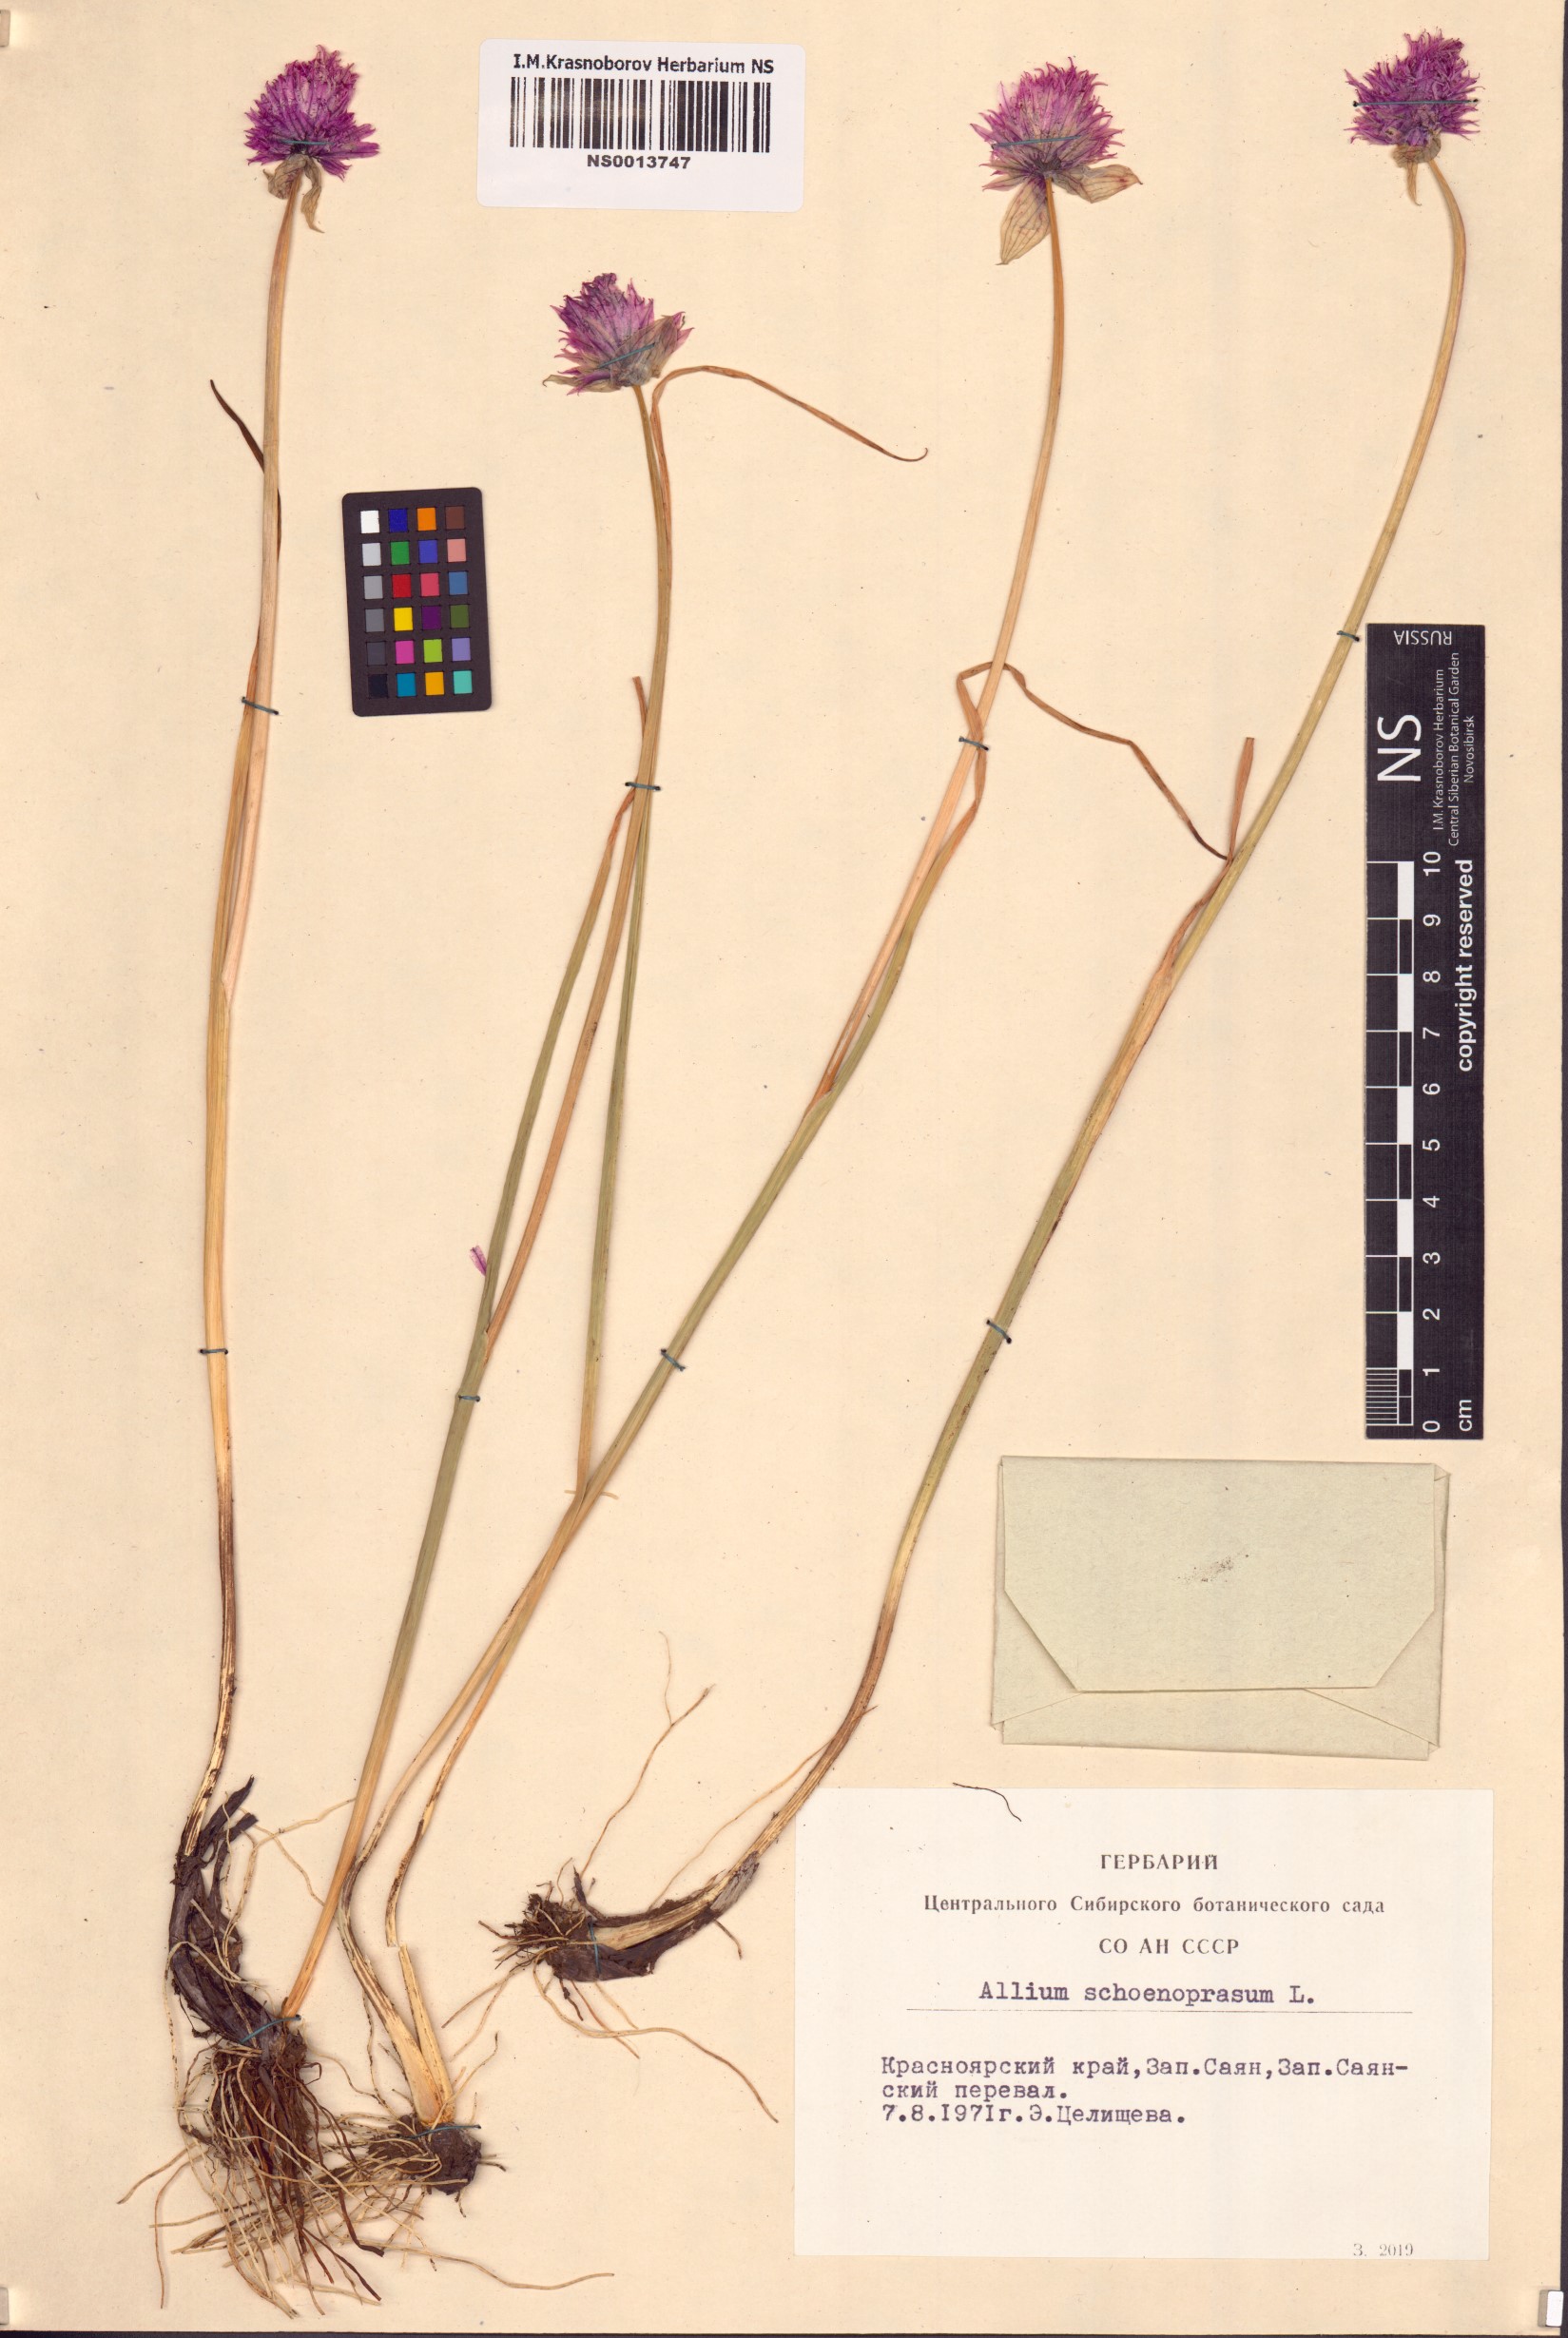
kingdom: Plantae
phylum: Tracheophyta
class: Liliopsida
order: Asparagales
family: Amaryllidaceae
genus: Allium
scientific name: Allium schoenoprasum
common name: Chives
